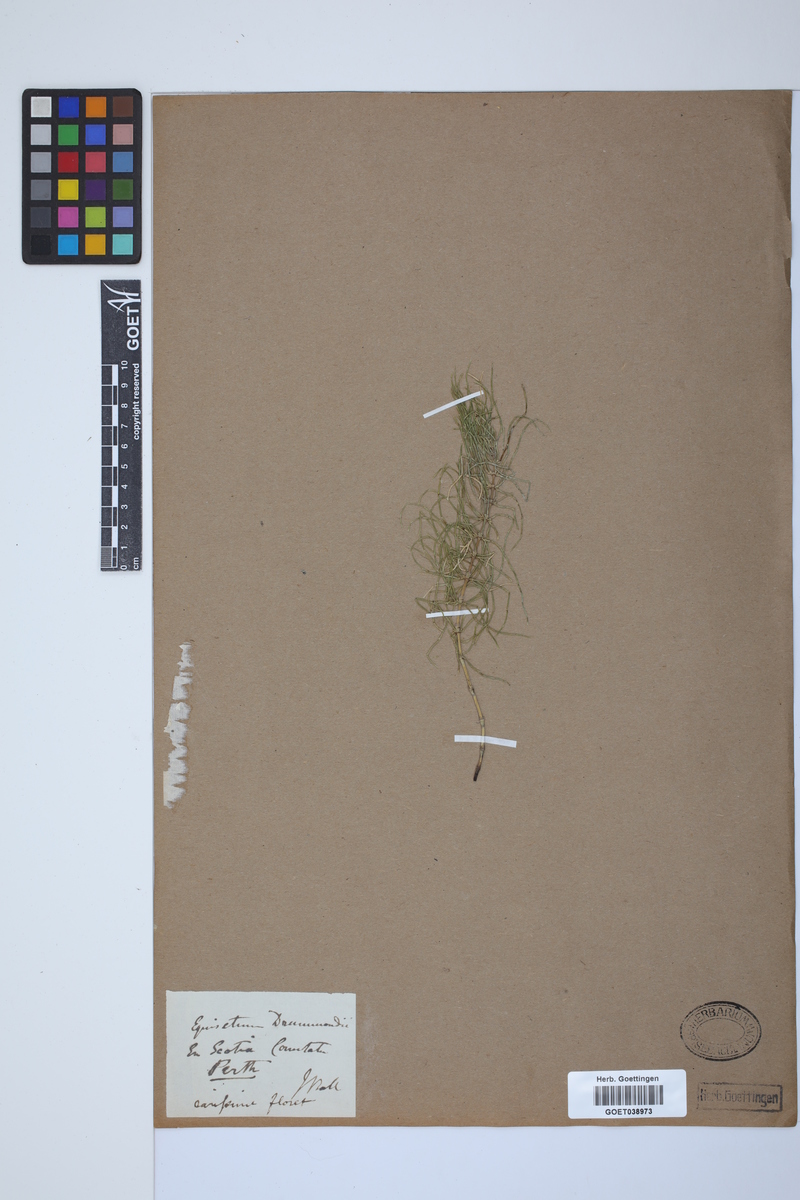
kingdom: Plantae
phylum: Tracheophyta
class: Polypodiopsida
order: Equisetales
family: Equisetaceae
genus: Equisetum
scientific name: Equisetum pratense
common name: Meadow horsetail
